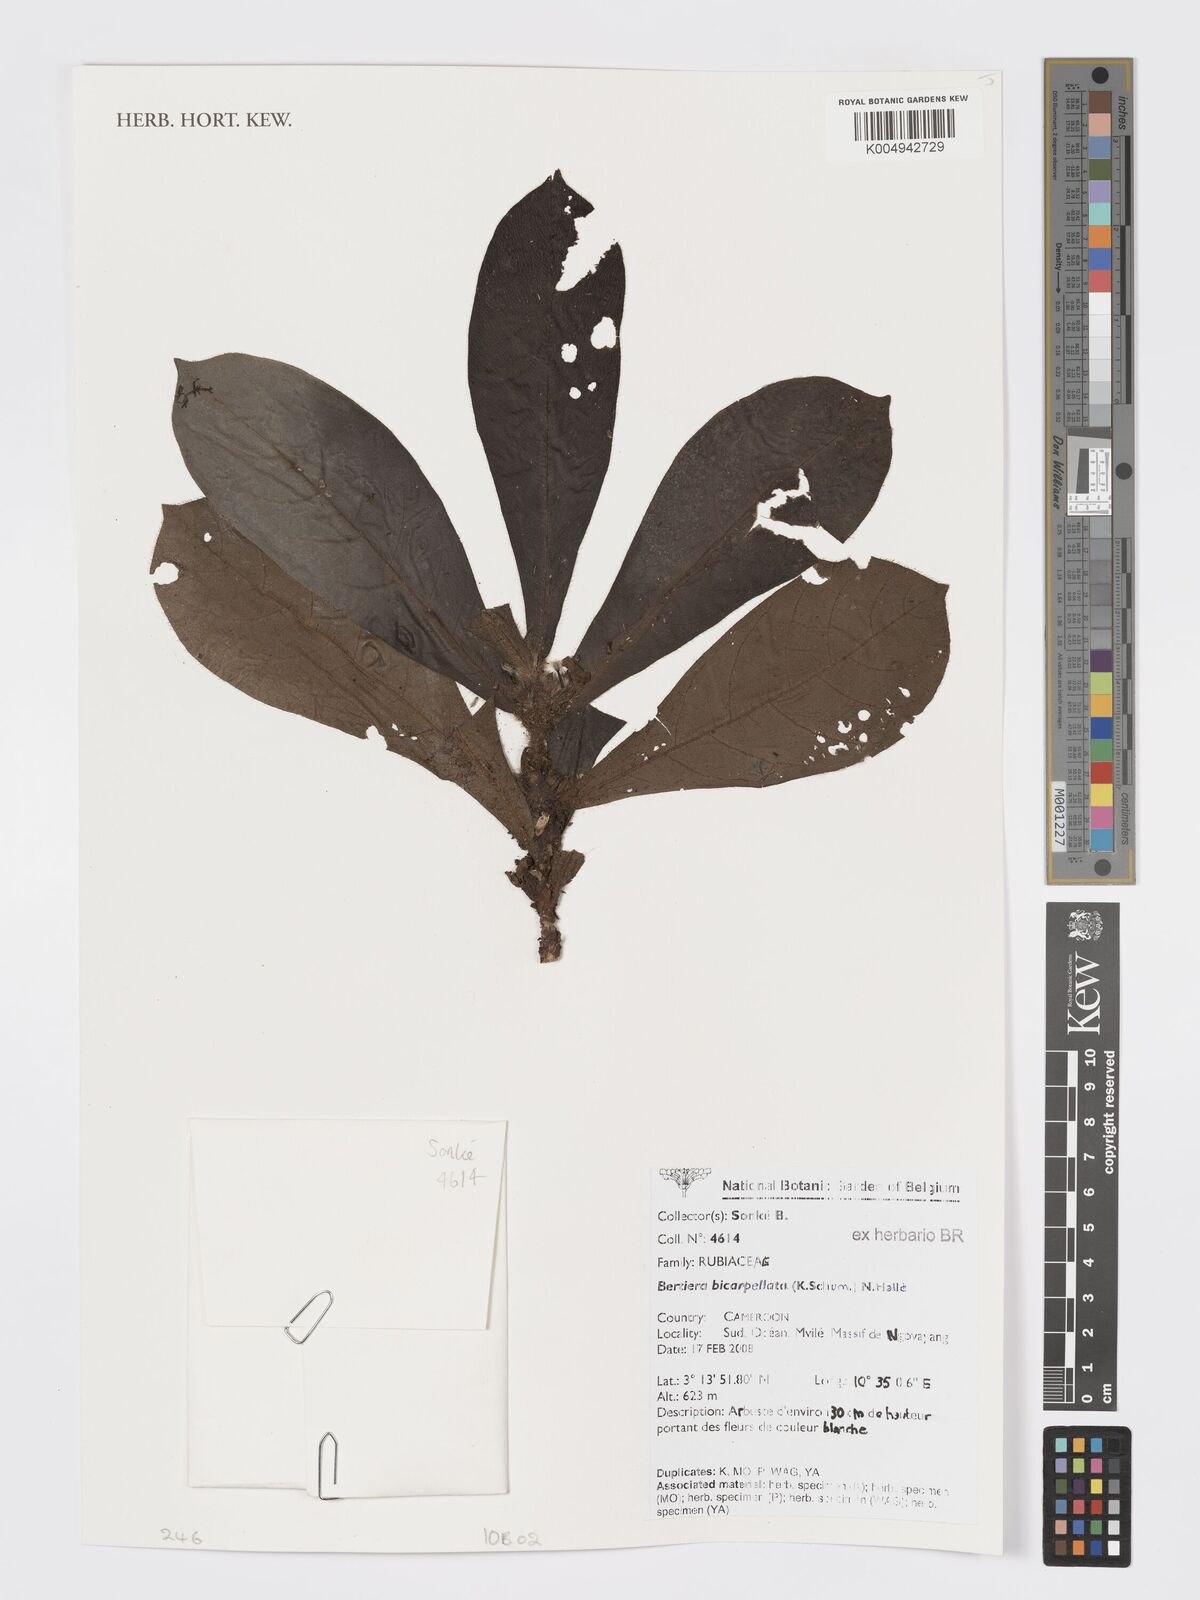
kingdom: Plantae
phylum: Tracheophyta
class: Magnoliopsida
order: Gentianales
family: Rubiaceae
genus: Bertiera
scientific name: Bertiera bicarpellata
